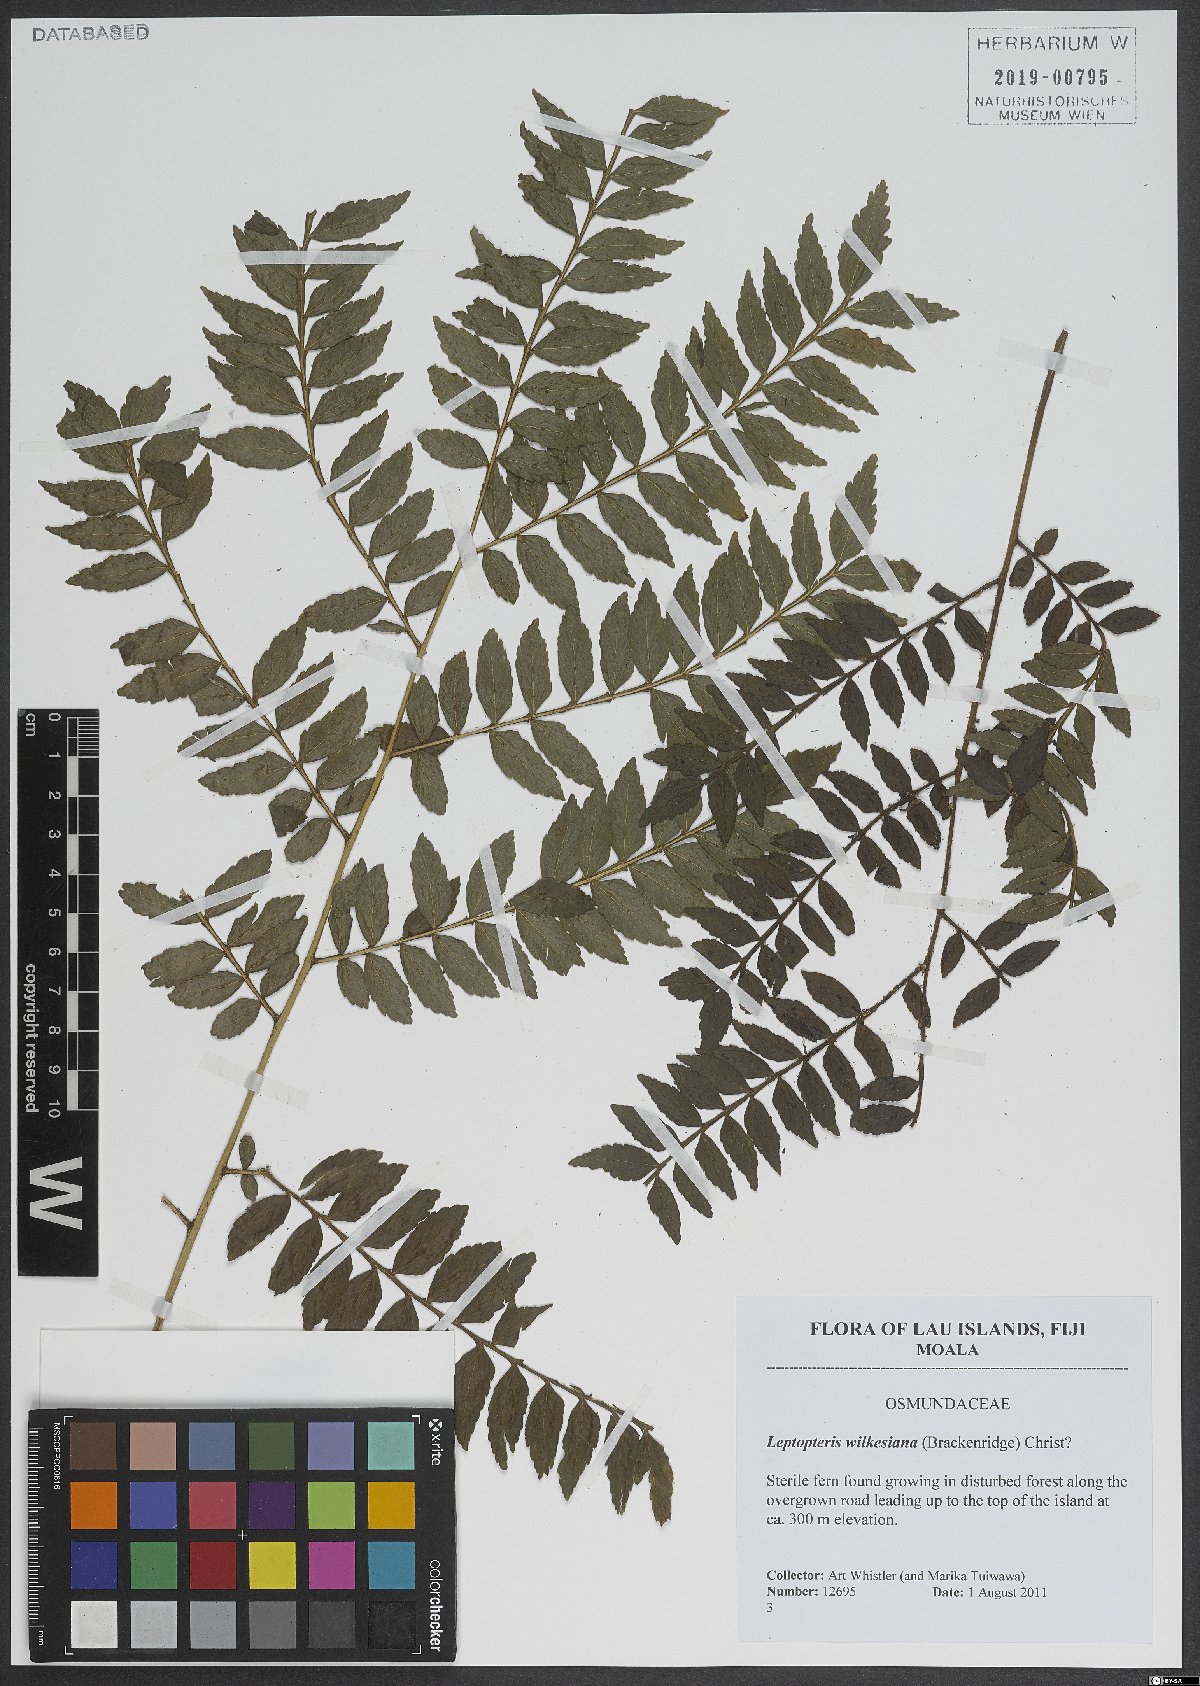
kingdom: Plantae
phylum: Tracheophyta
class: Polypodiopsida
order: Osmundales
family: Osmundaceae
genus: Leptopteris
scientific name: Leptopteris wilkesiana
